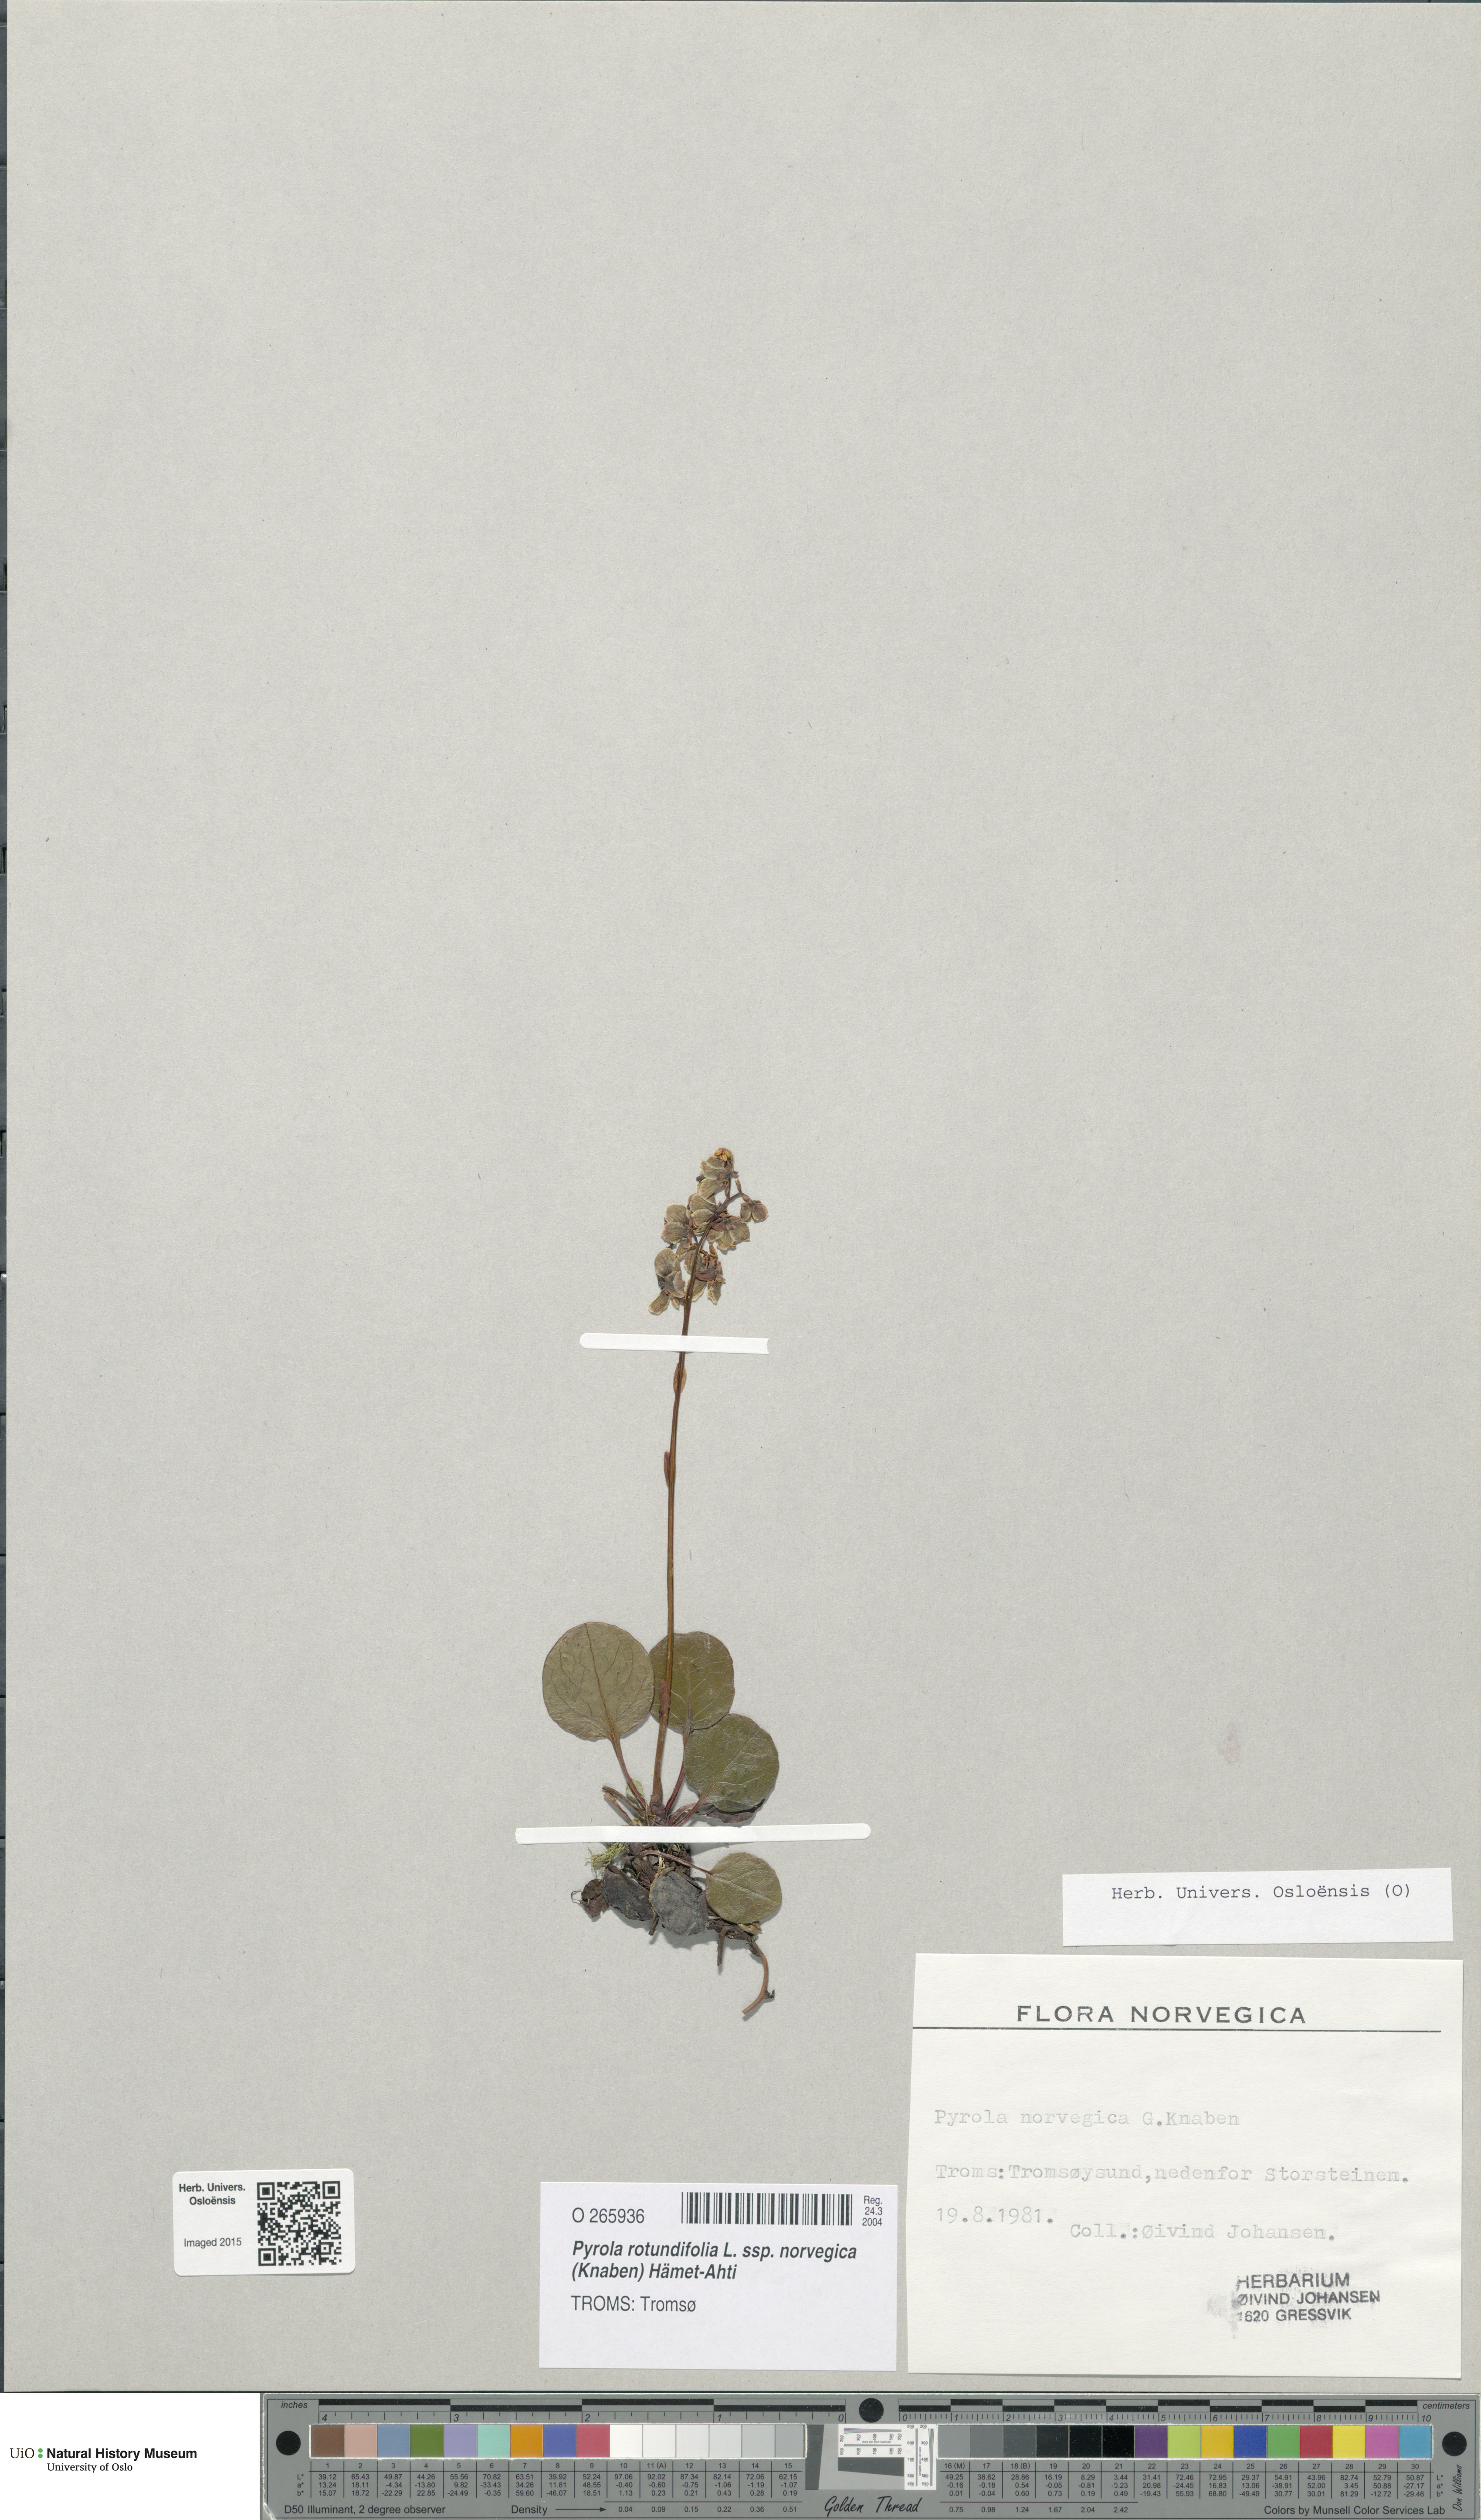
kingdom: Plantae
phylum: Tracheophyta
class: Magnoliopsida
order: Ericales
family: Ericaceae
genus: Pyrola
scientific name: Pyrola rotundifolia
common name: Round-leaved wintergreen
